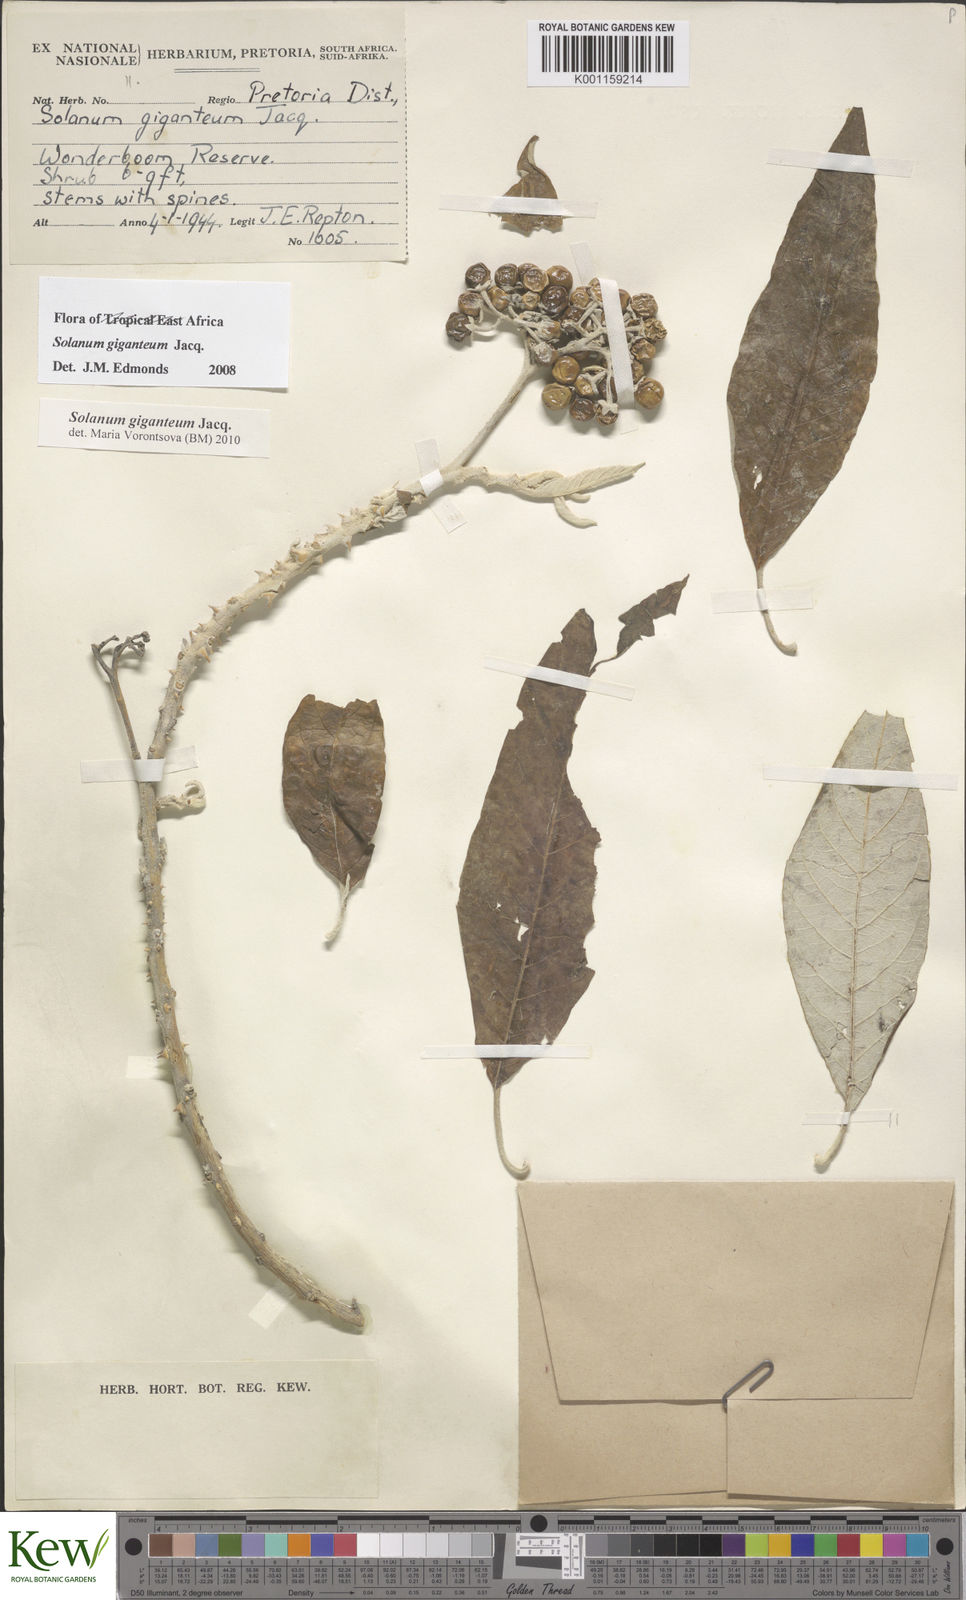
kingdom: Plantae
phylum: Tracheophyta
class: Magnoliopsida
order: Solanales
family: Solanaceae
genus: Solanum
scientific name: Solanum giganteum
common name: Healing-leaf-tree
